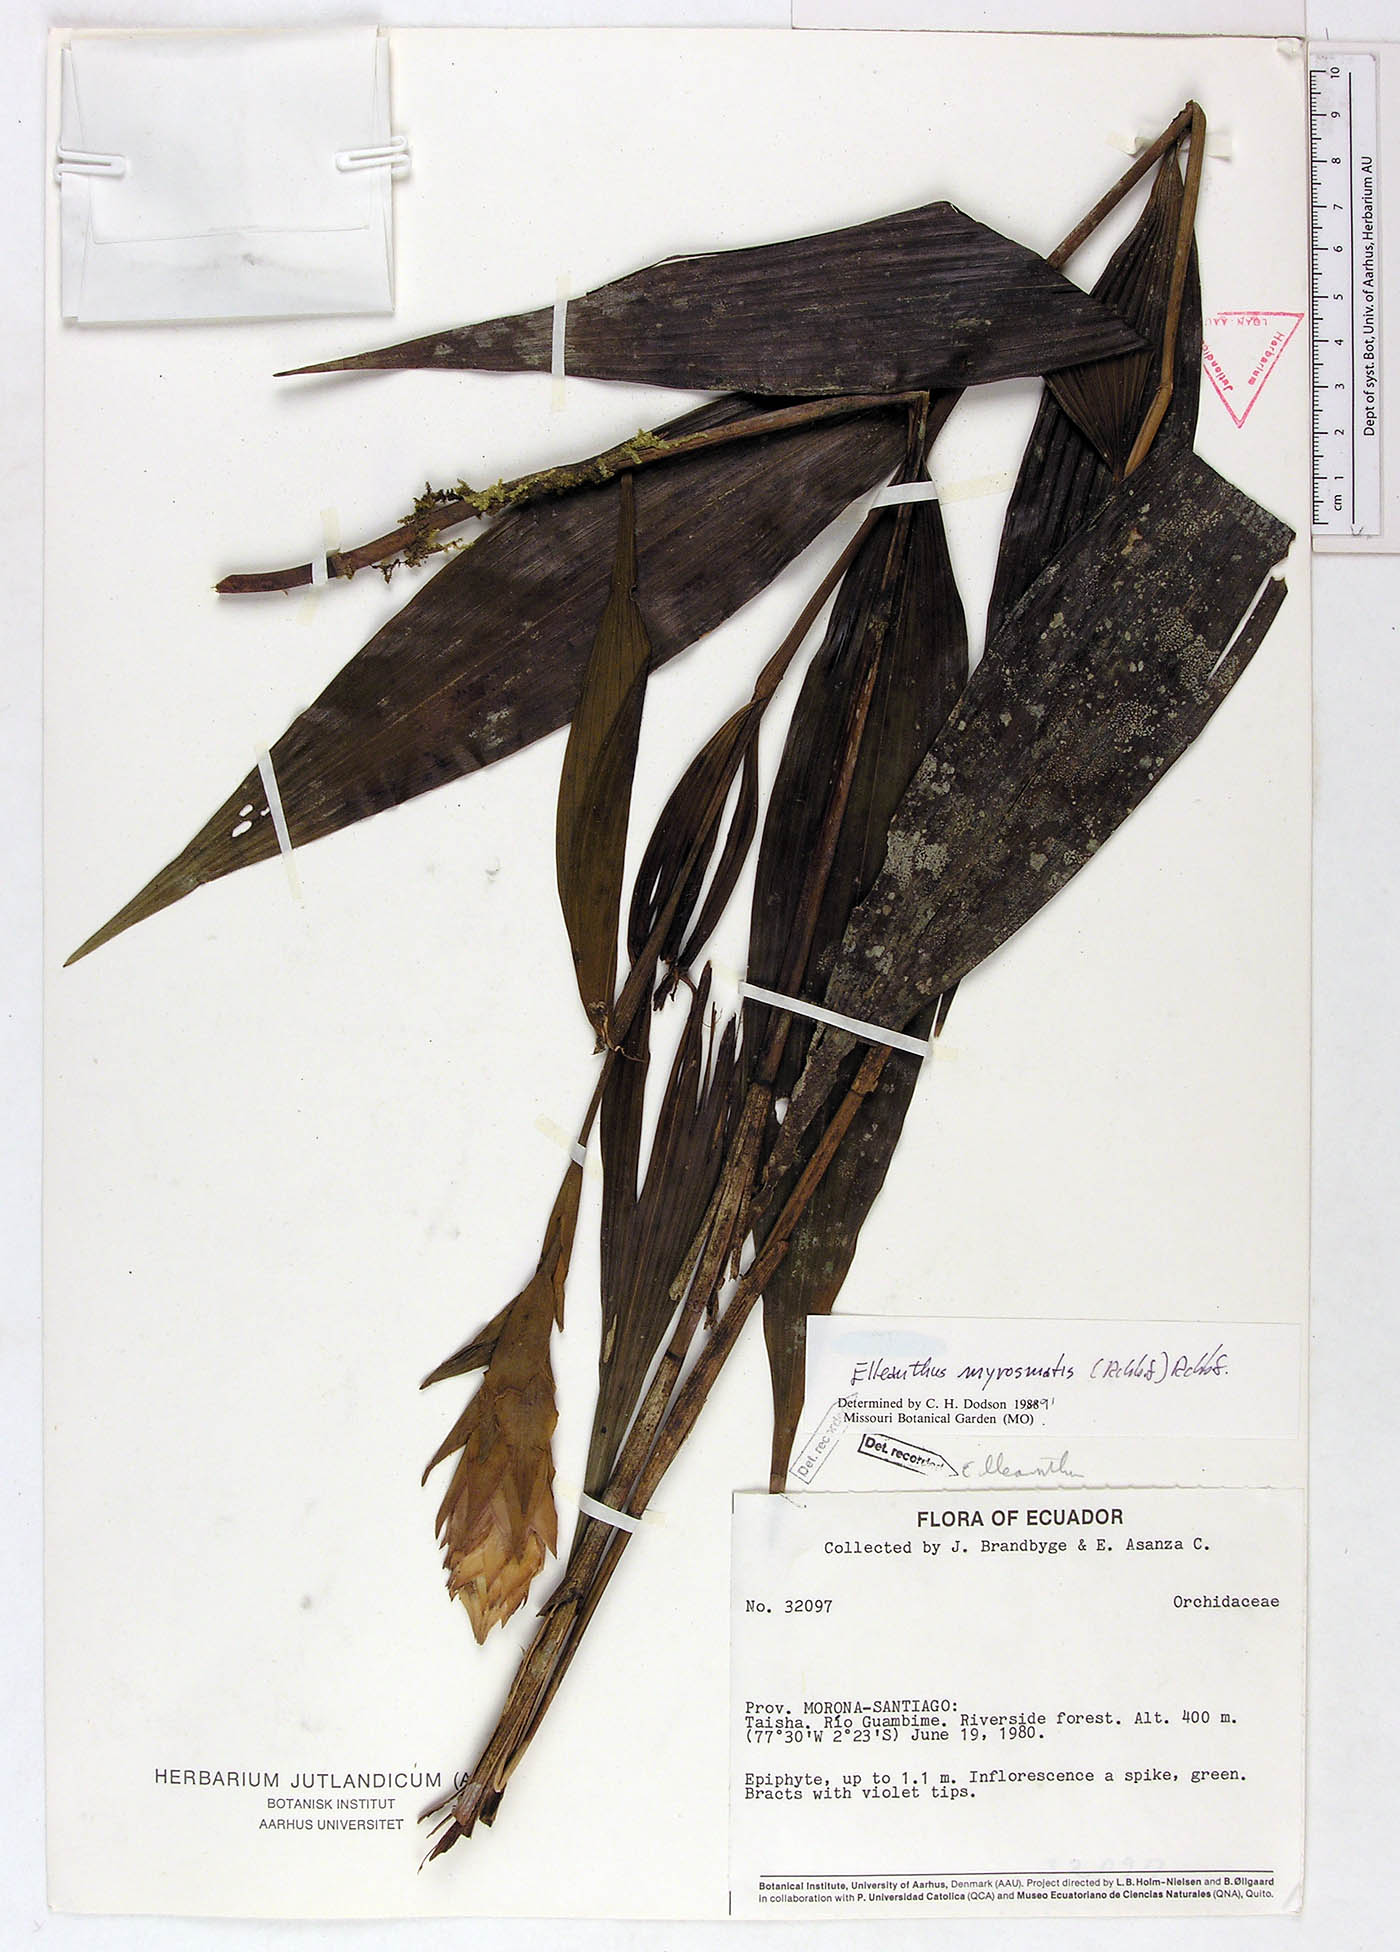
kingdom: Plantae
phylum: Tracheophyta
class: Liliopsida
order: Asparagales
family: Orchidaceae
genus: Elleanthus
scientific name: Elleanthus myrosmatis
